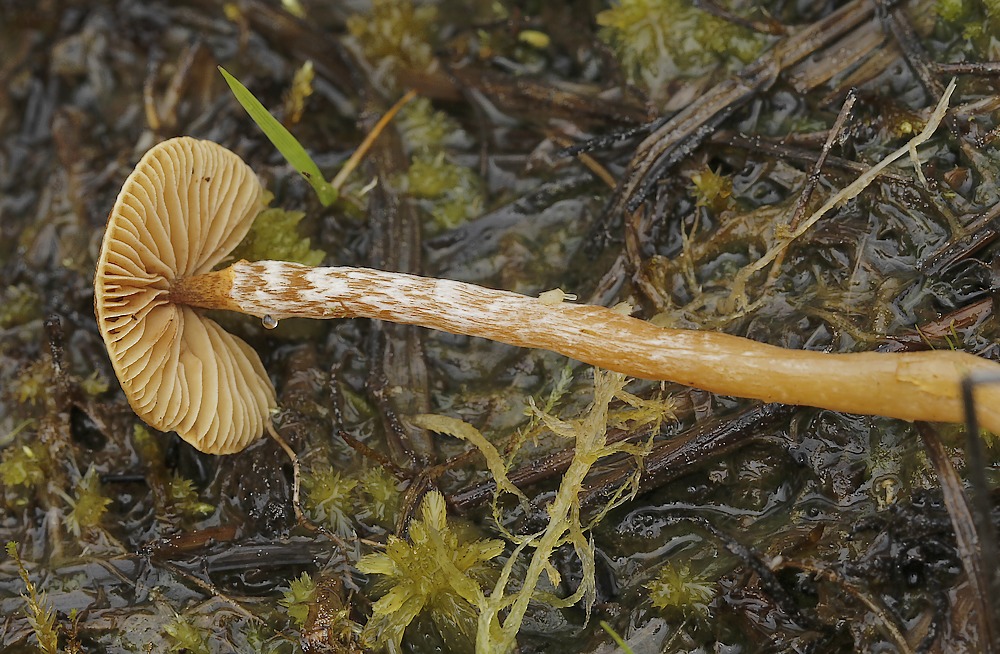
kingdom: Fungi
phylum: Basidiomycota
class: Agaricomycetes
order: Agaricales
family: Hymenogastraceae
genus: Galerina
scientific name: Galerina paludosa
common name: mose-hjelmhat
